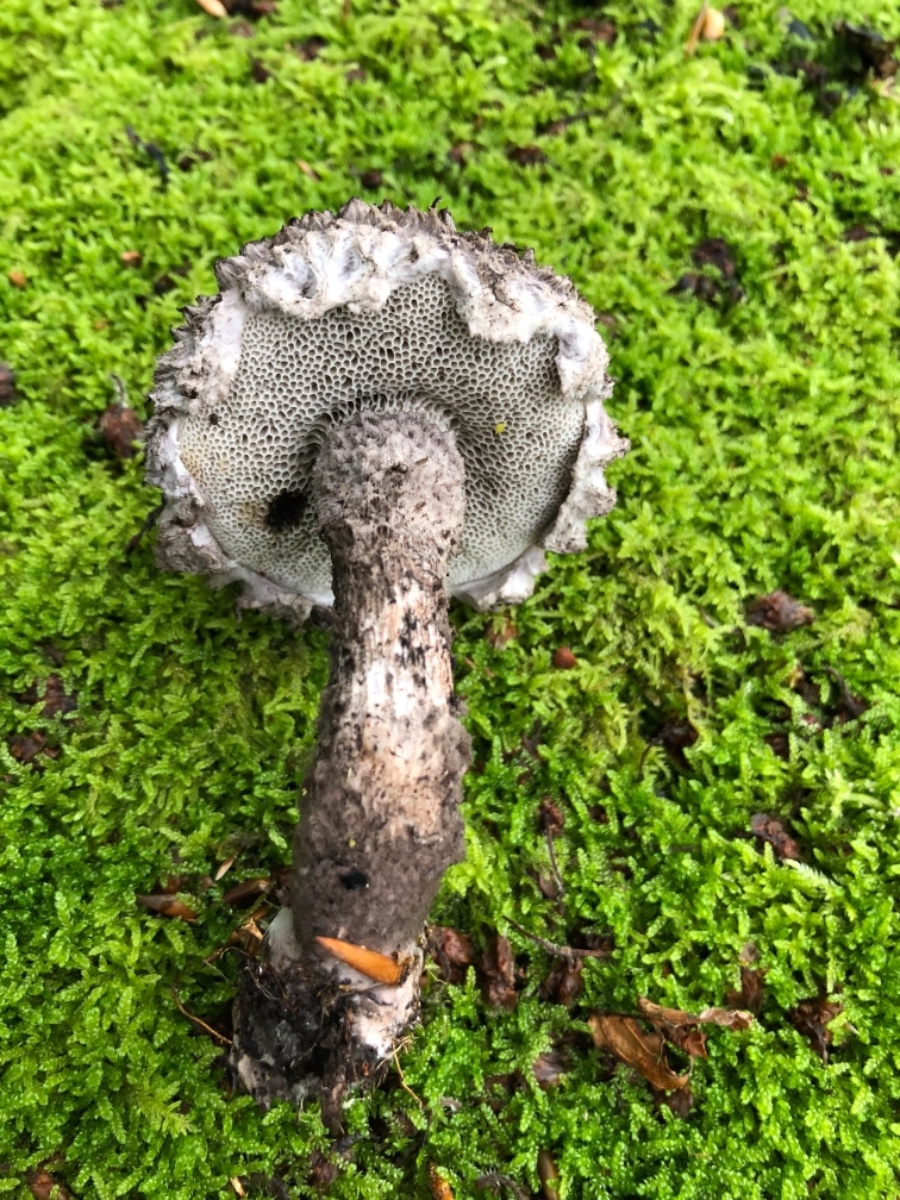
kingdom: Fungi
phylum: Basidiomycota
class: Agaricomycetes
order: Boletales
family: Boletaceae
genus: Strobilomyces
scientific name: Strobilomyces strobilaceus
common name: koglerørhat
